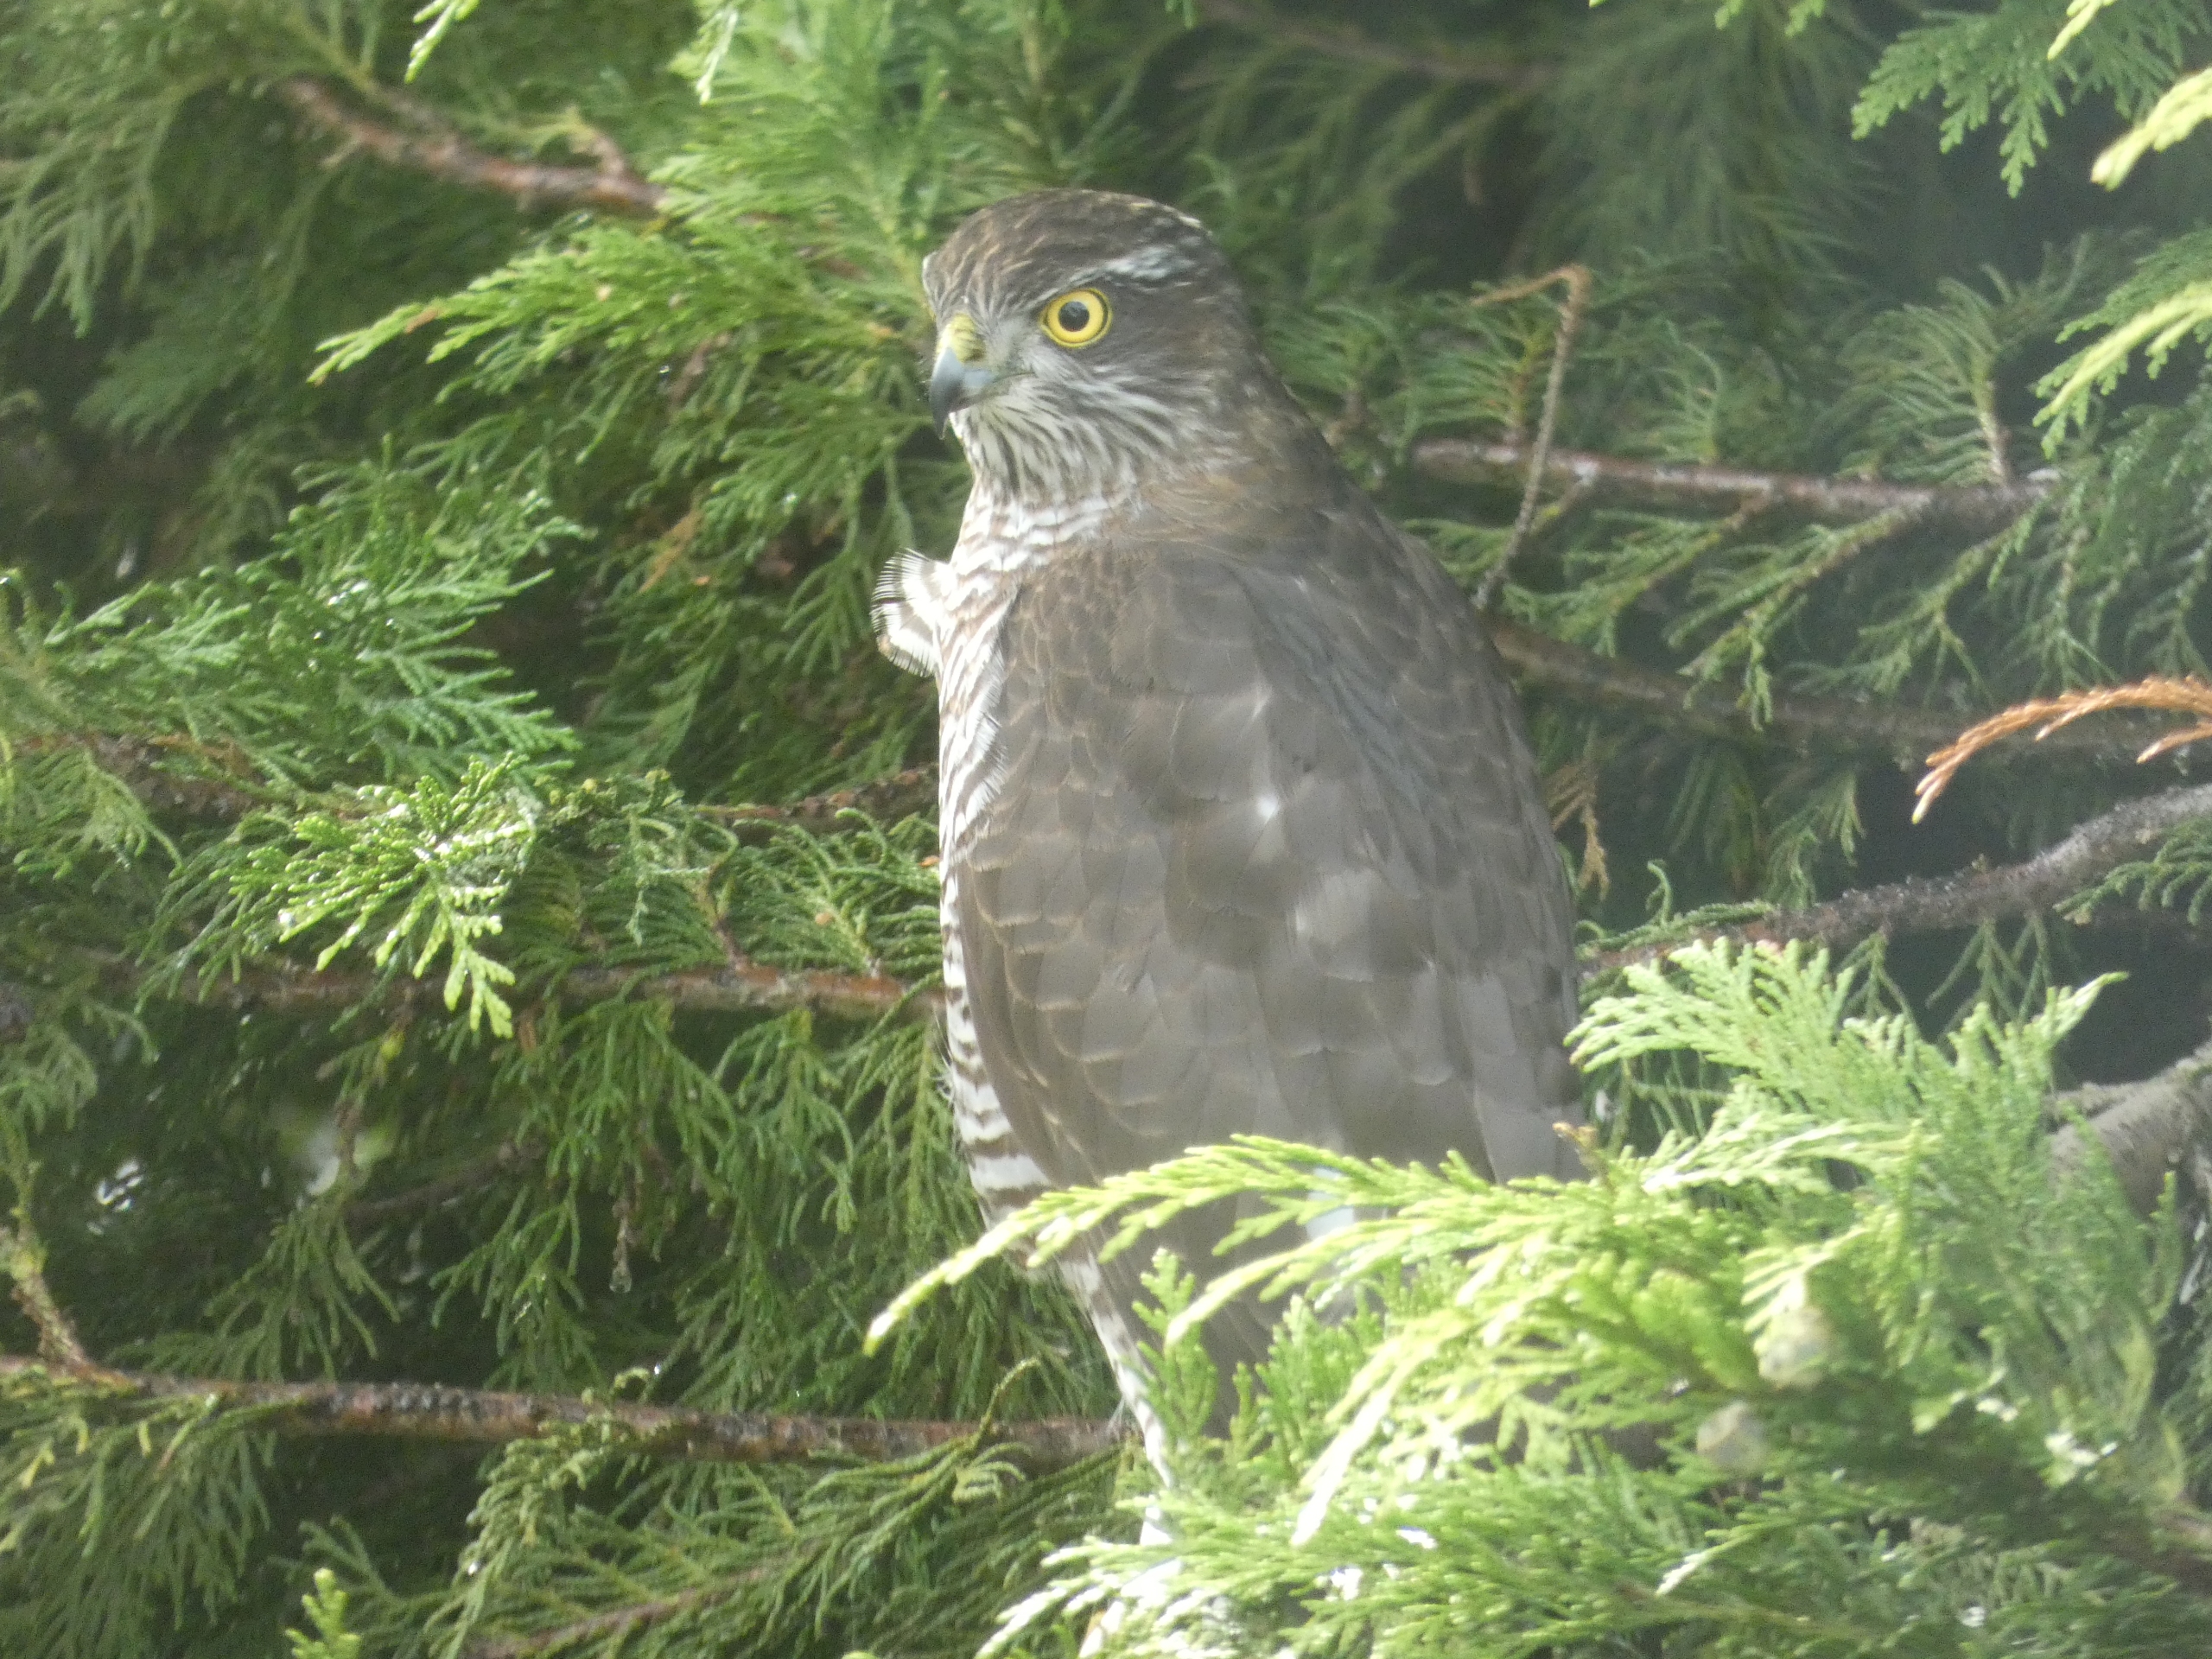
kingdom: Animalia
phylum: Chordata
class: Aves
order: Accipitriformes
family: Accipitridae
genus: Accipiter
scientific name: Accipiter nisus
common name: Spurvehøg
